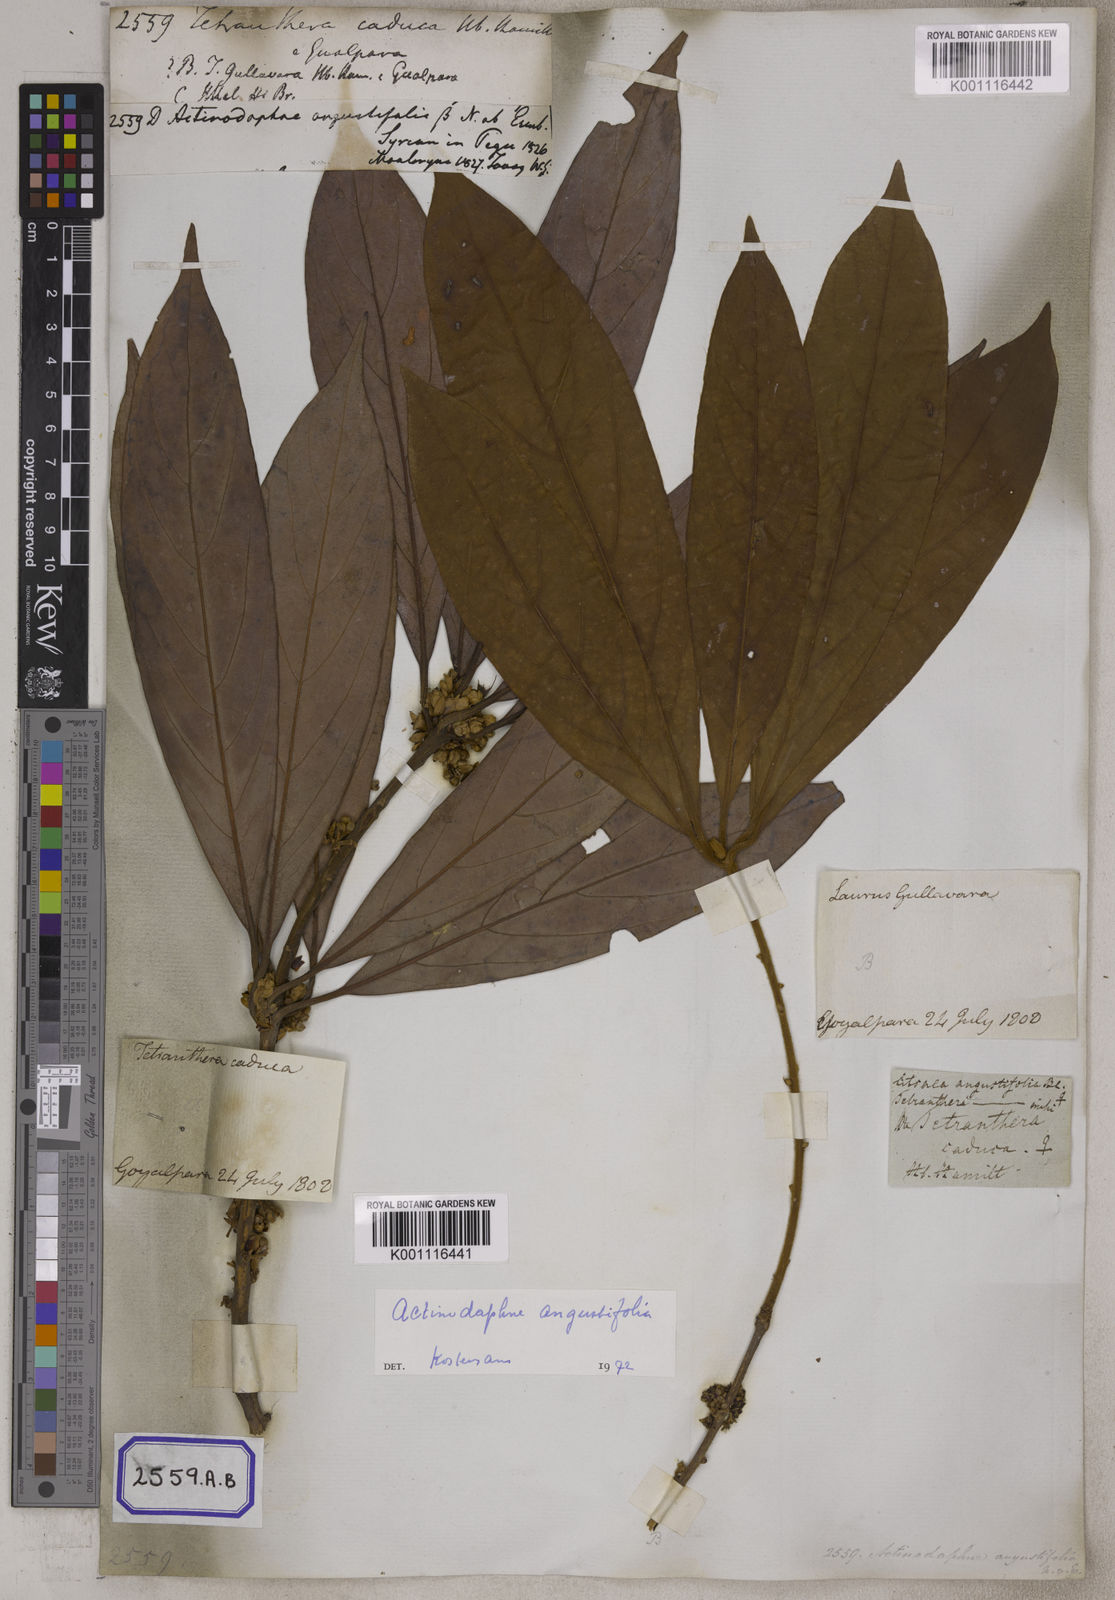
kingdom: Plantae
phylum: Tracheophyta
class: Magnoliopsida
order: Laurales
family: Lauraceae
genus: Actinodaphne
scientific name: Actinodaphne angustifolia
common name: Pisatree
